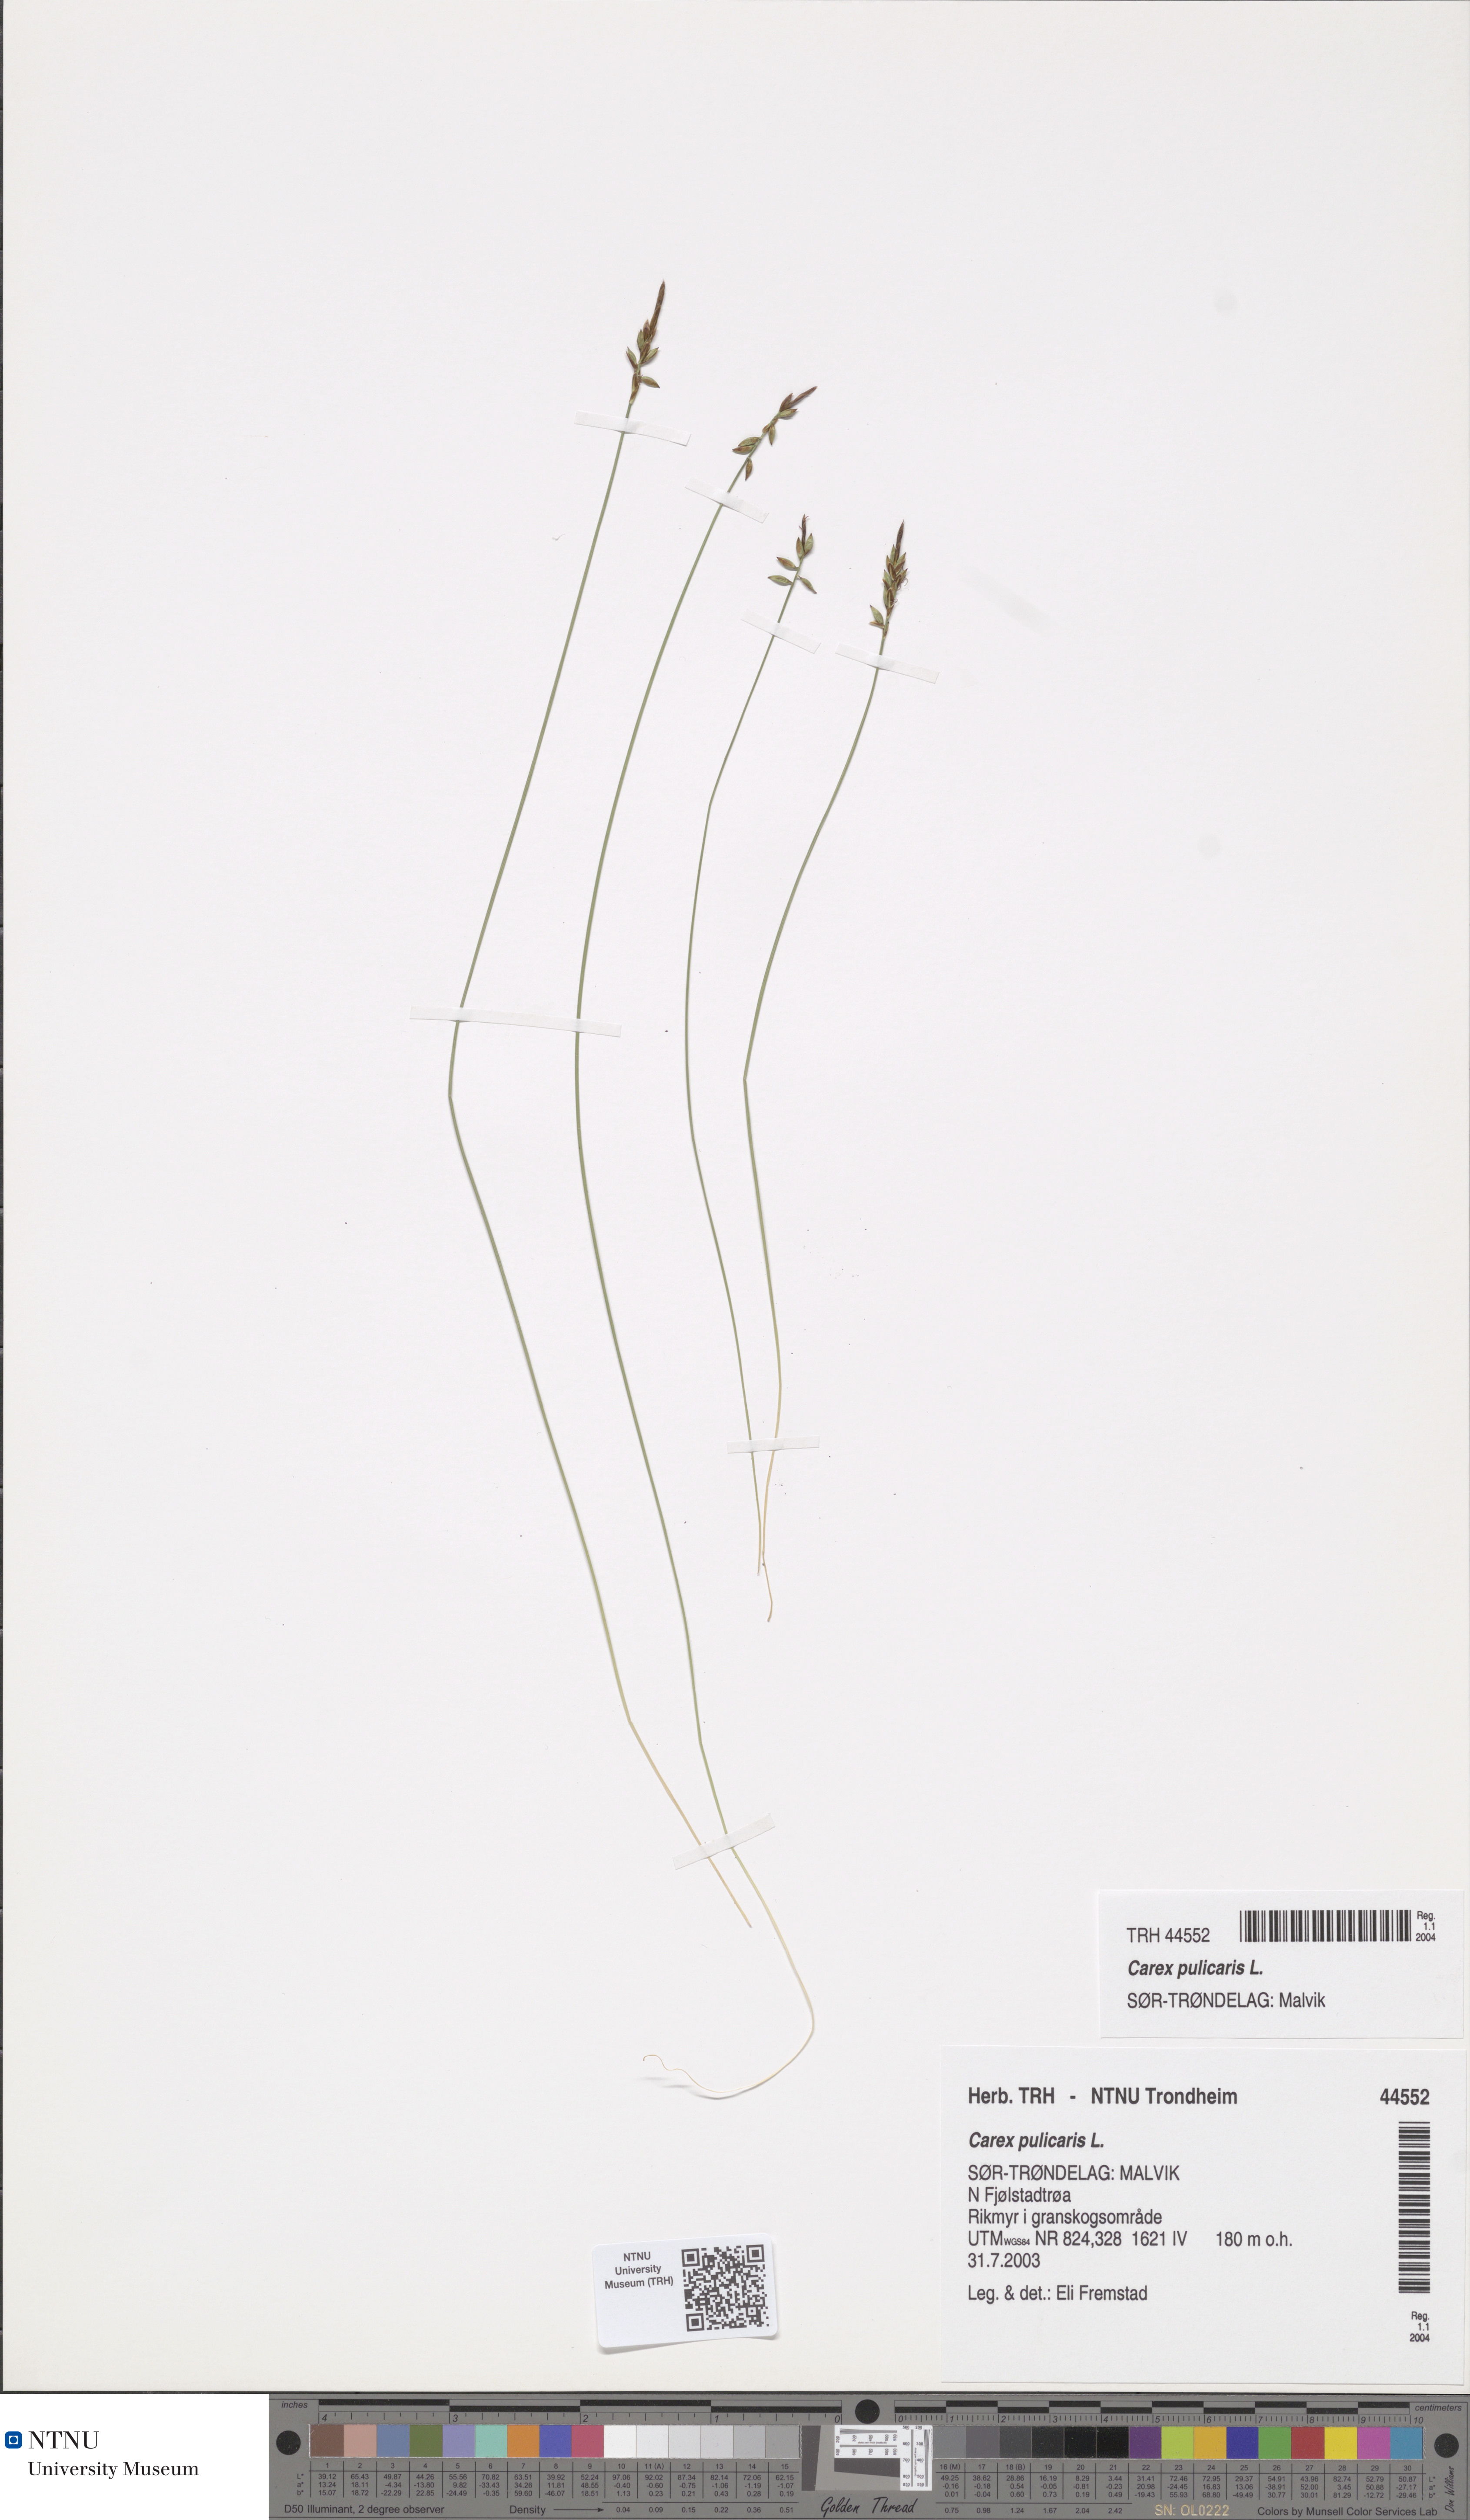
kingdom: Plantae
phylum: Tracheophyta
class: Liliopsida
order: Poales
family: Cyperaceae
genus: Carex
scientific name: Carex pulicaris
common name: Flea sedge
